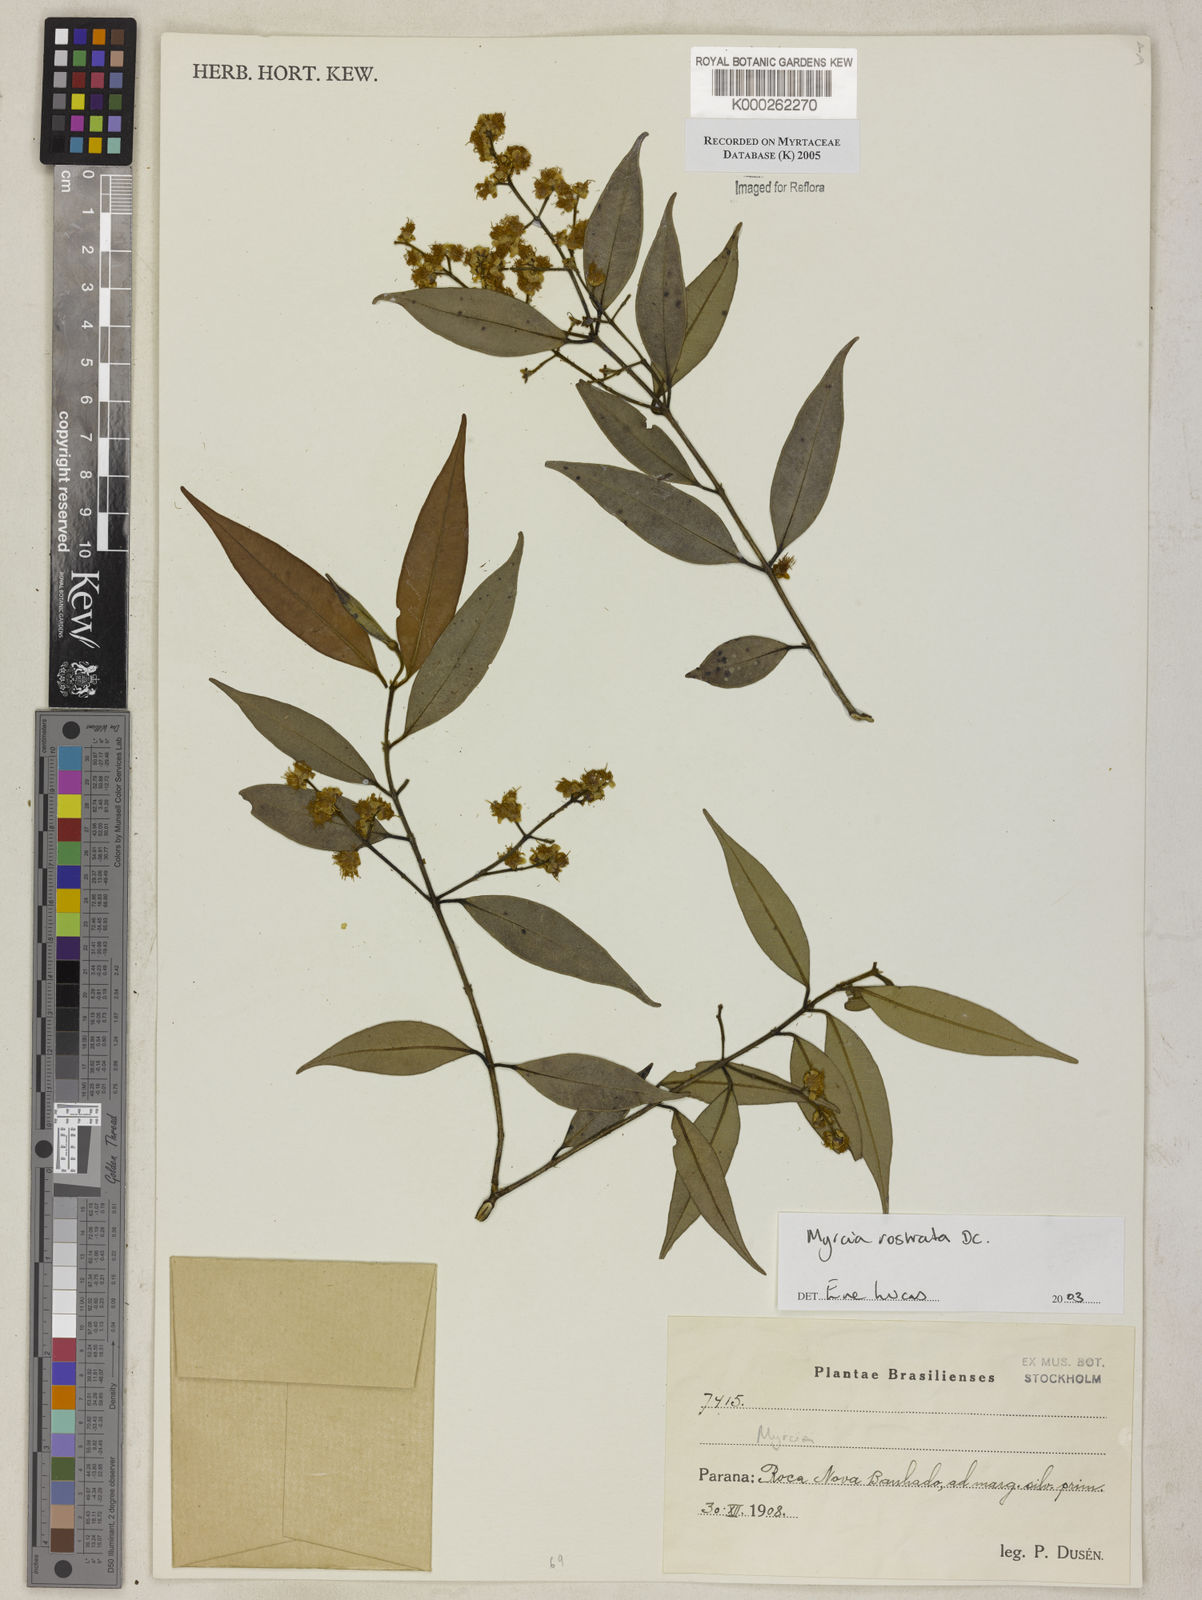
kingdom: Plantae
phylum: Tracheophyta
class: Magnoliopsida
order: Myrtales
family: Myrtaceae
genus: Myrcia
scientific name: Myrcia splendens
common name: Surinam cherry
